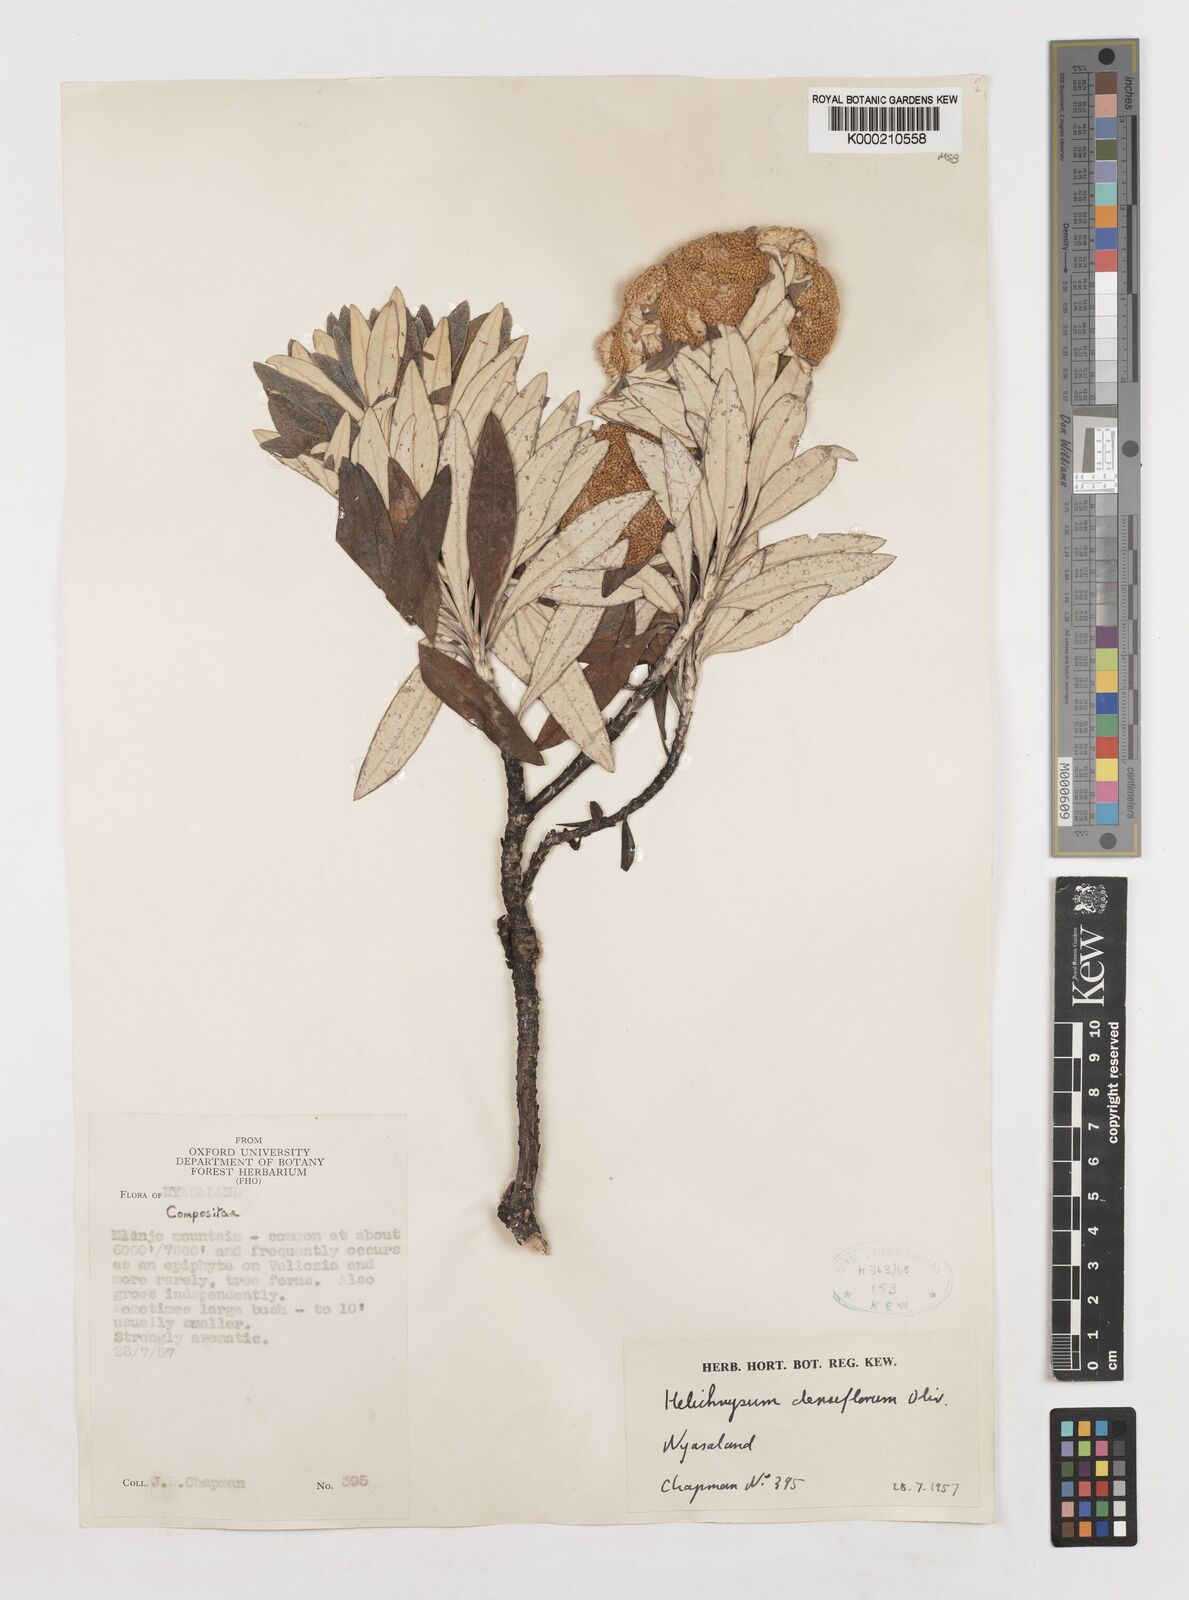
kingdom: Plantae
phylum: Tracheophyta
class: Magnoliopsida
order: Asterales
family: Asteraceae
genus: Helichrysum
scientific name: Helichrysum densiflorum
